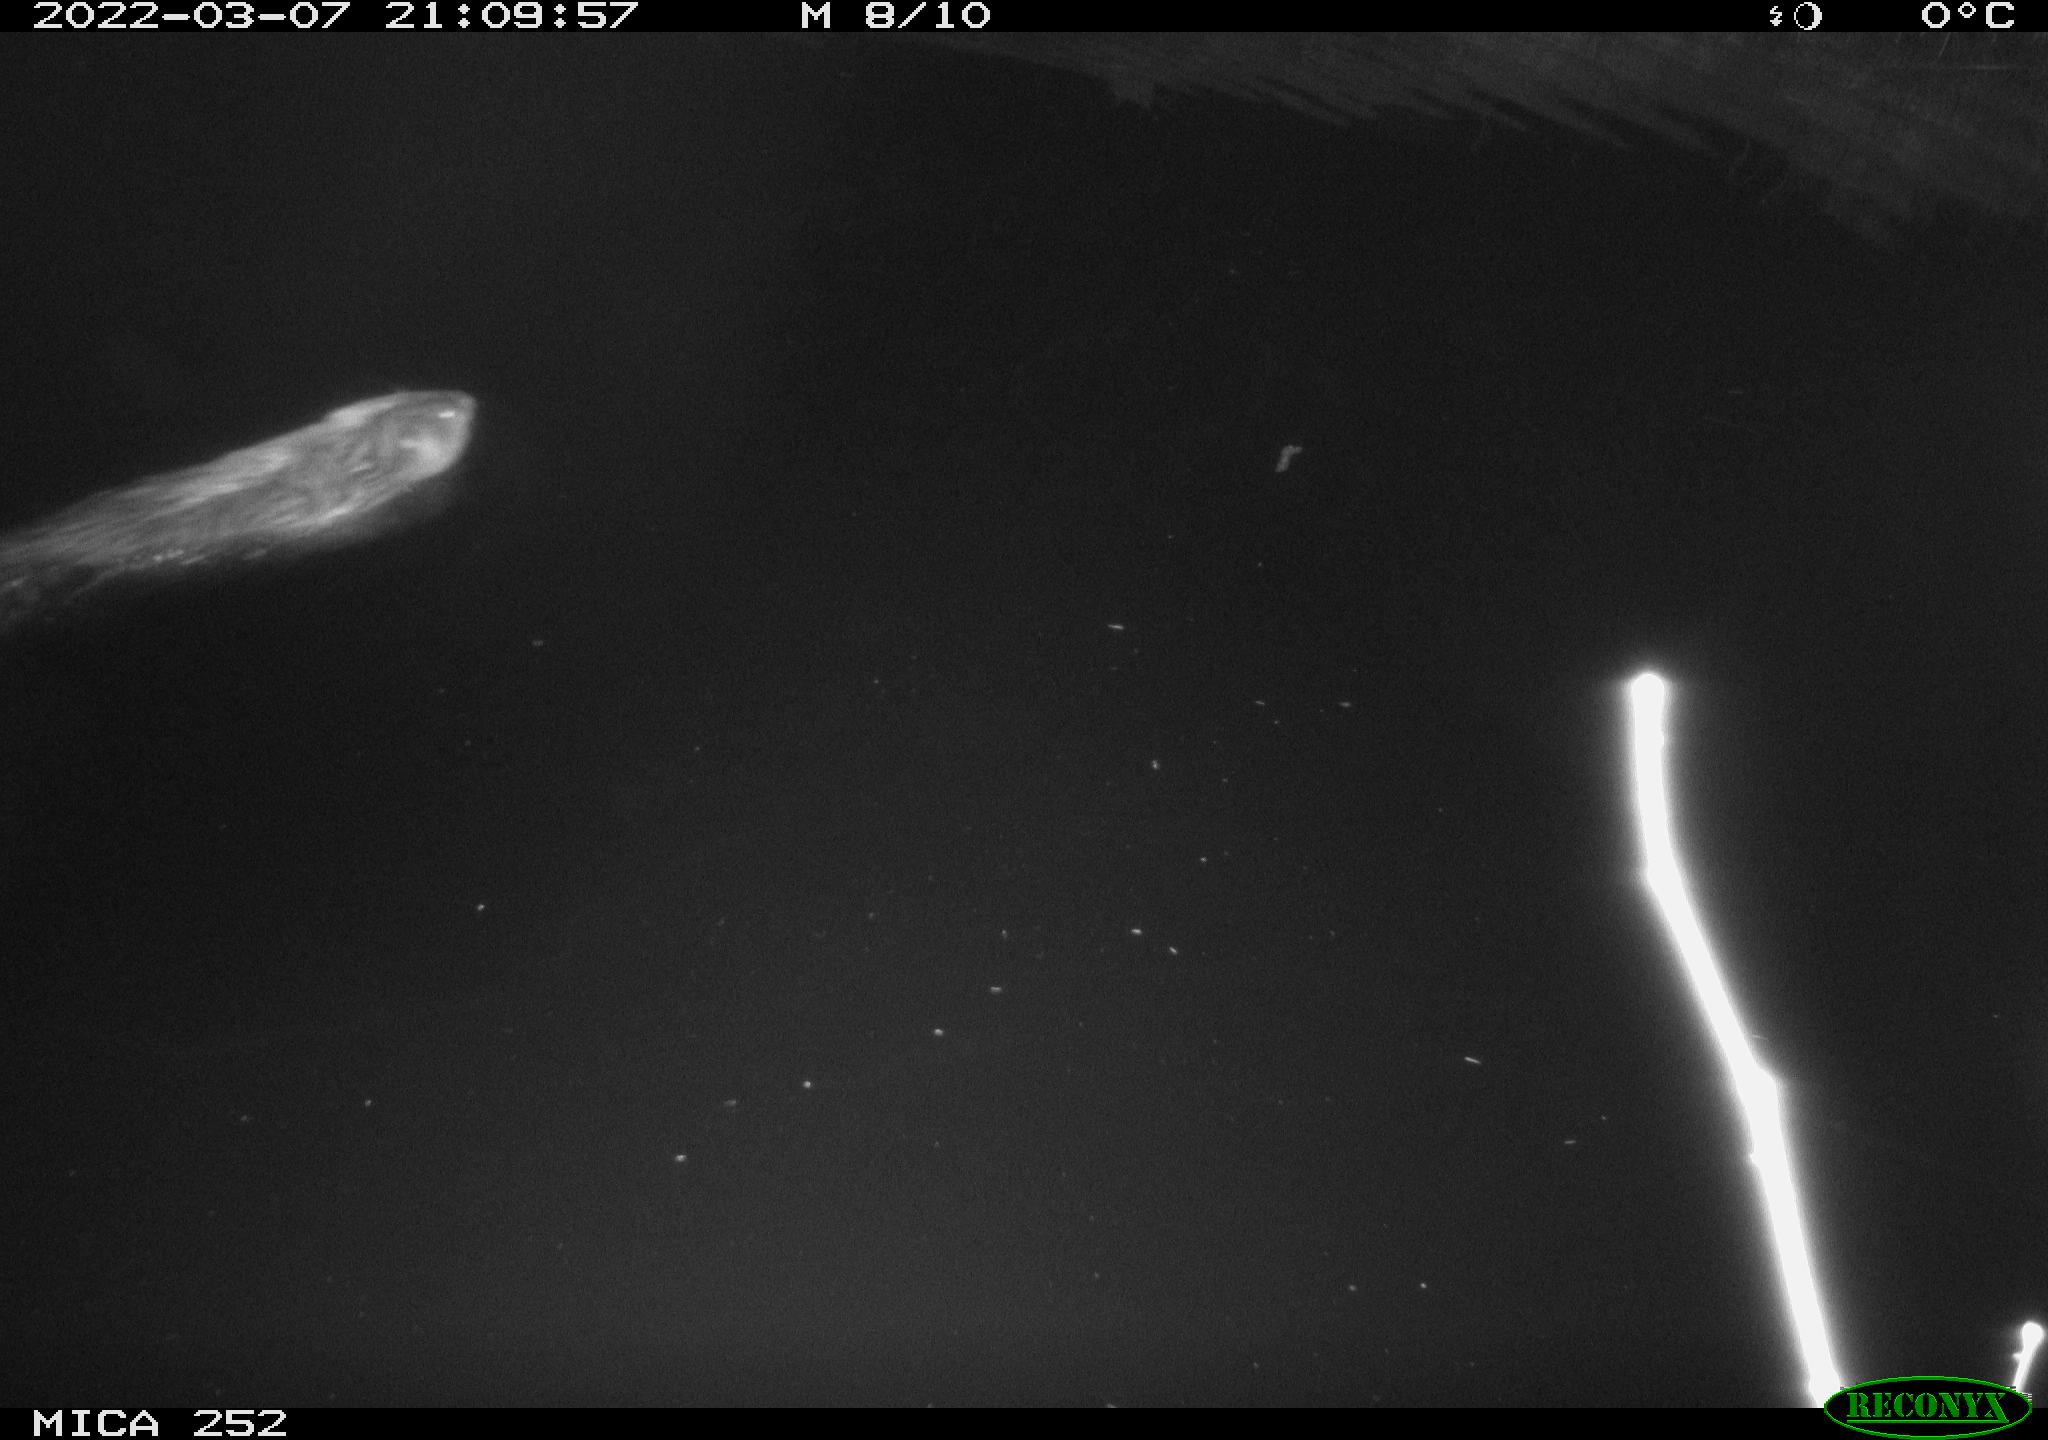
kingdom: Animalia
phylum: Chordata
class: Mammalia
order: Rodentia
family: Castoridae
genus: Castor
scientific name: Castor fiber
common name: Eurasian beaver
